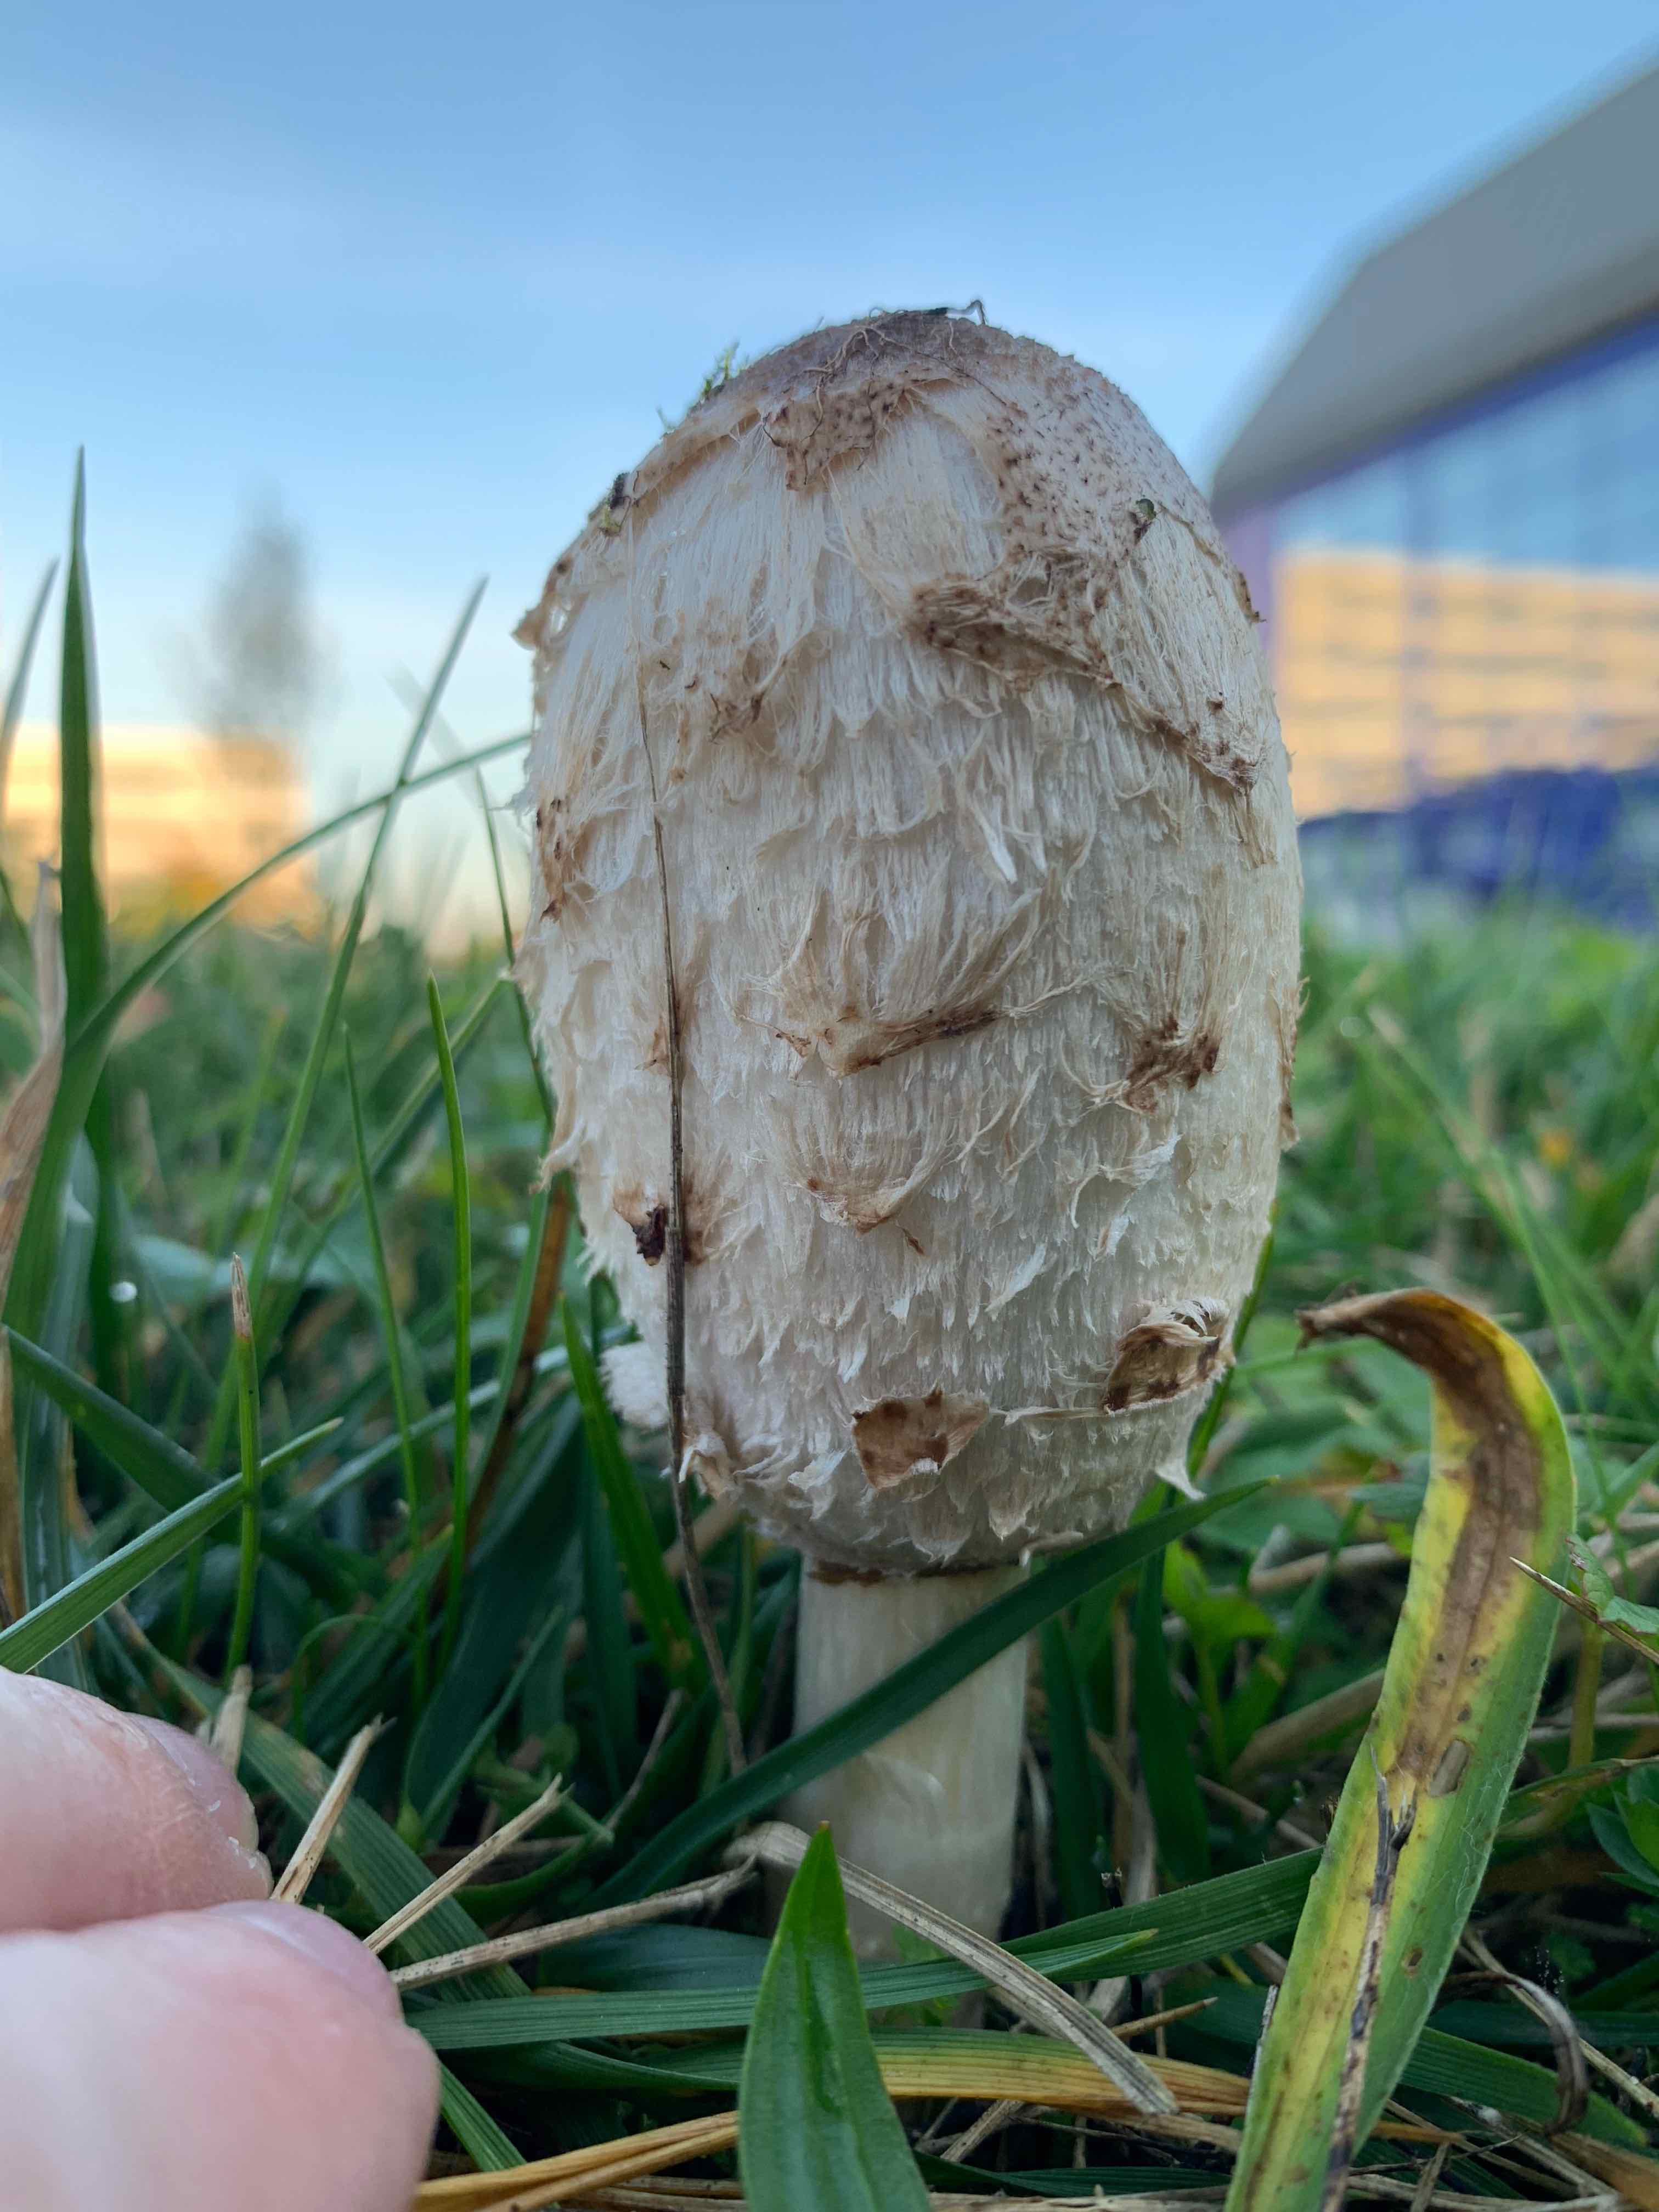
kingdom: Fungi
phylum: Basidiomycota
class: Agaricomycetes
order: Agaricales
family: Agaricaceae
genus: Coprinus
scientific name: Coprinus comatus
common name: stor parykhat
